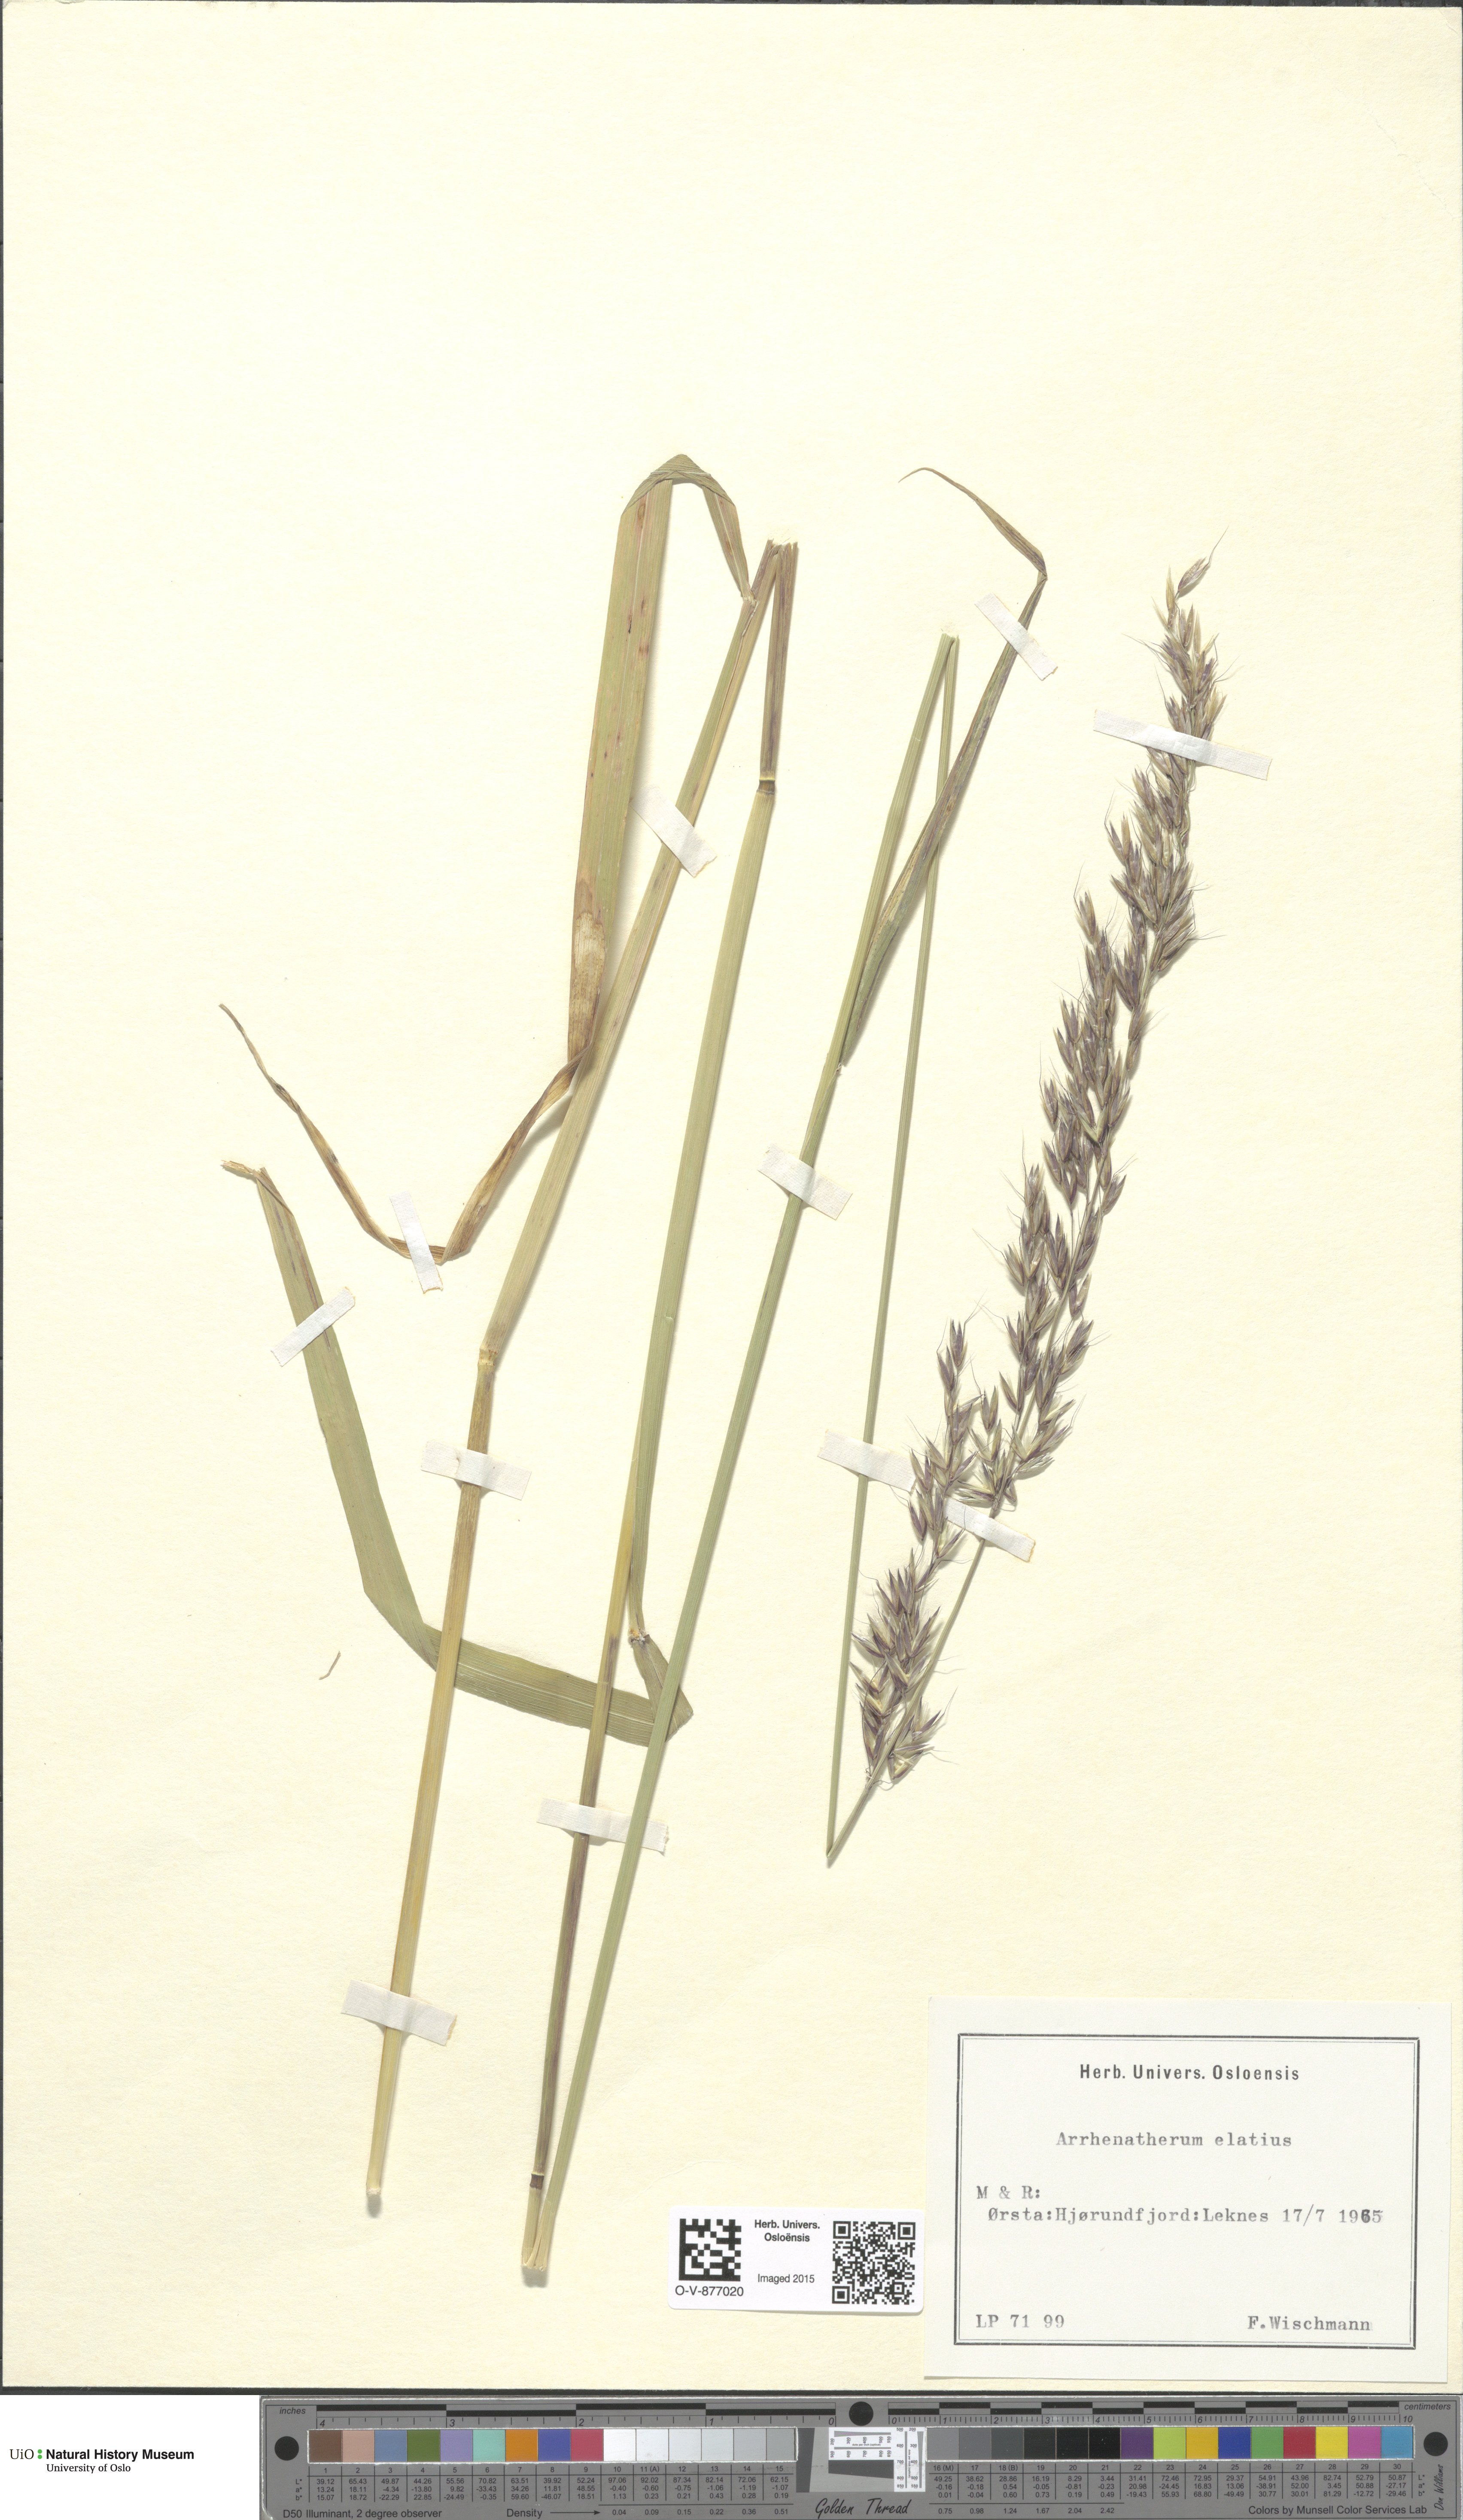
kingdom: Plantae
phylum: Tracheophyta
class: Liliopsida
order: Poales
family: Poaceae
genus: Arrhenatherum
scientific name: Arrhenatherum elatius
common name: Tall oatgrass
